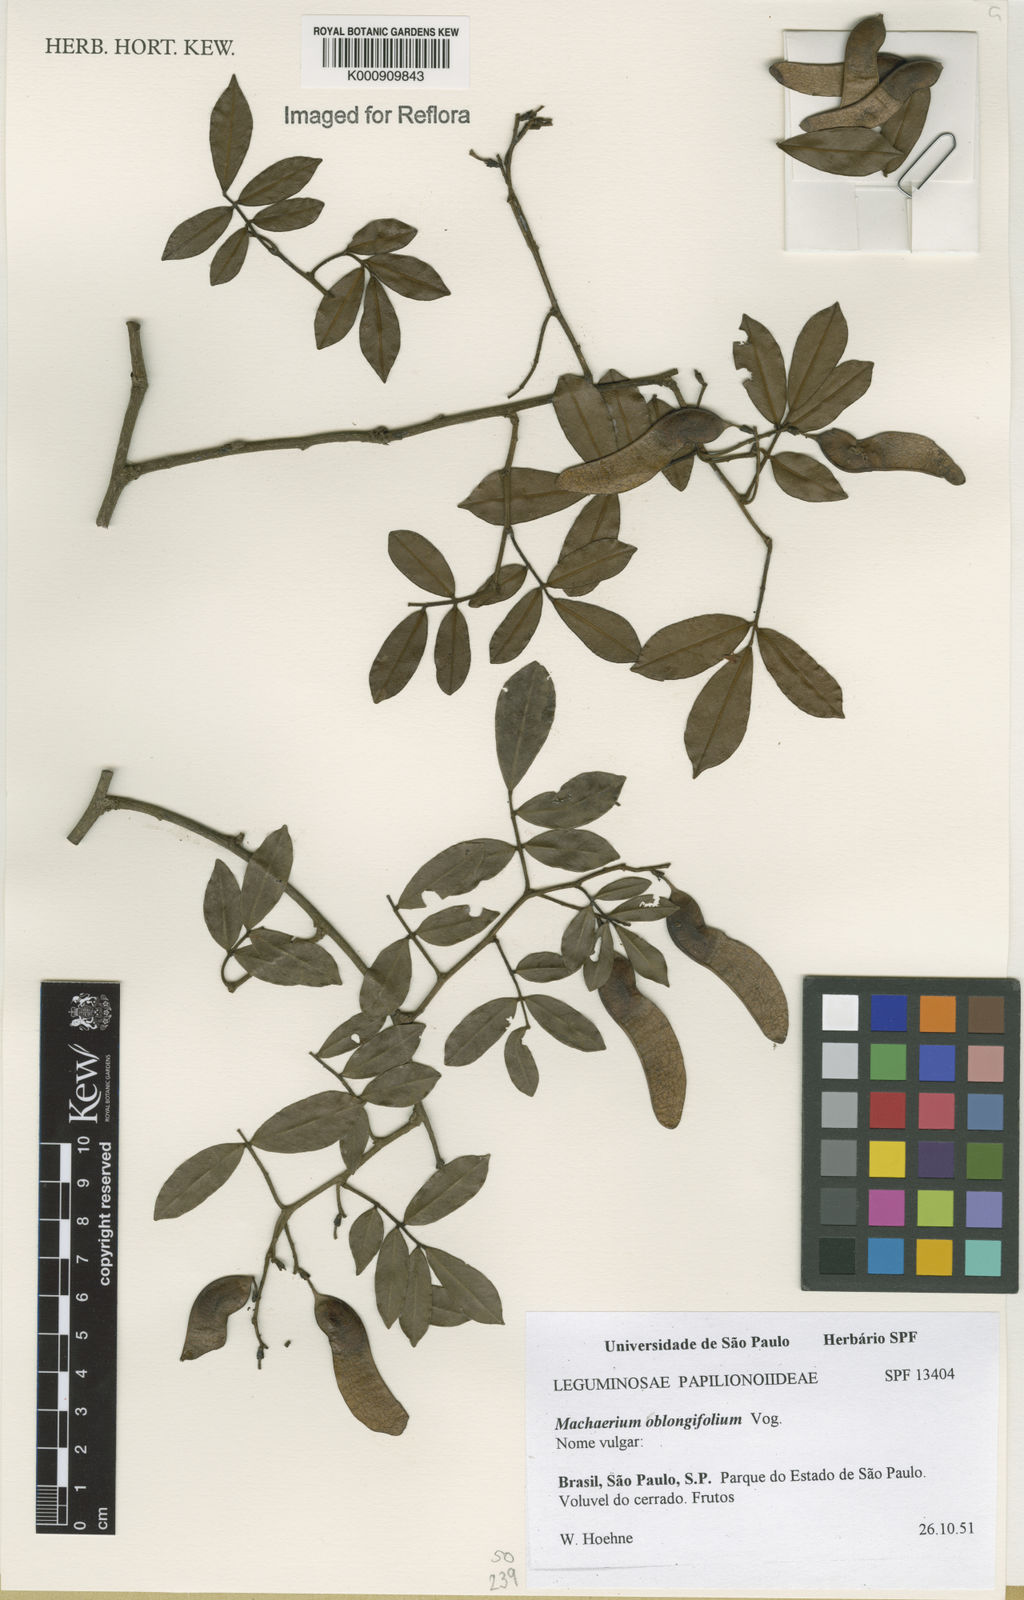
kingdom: Plantae
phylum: Tracheophyta
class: Magnoliopsida
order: Fabales
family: Fabaceae
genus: Machaerium
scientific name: Machaerium oblongifolium
